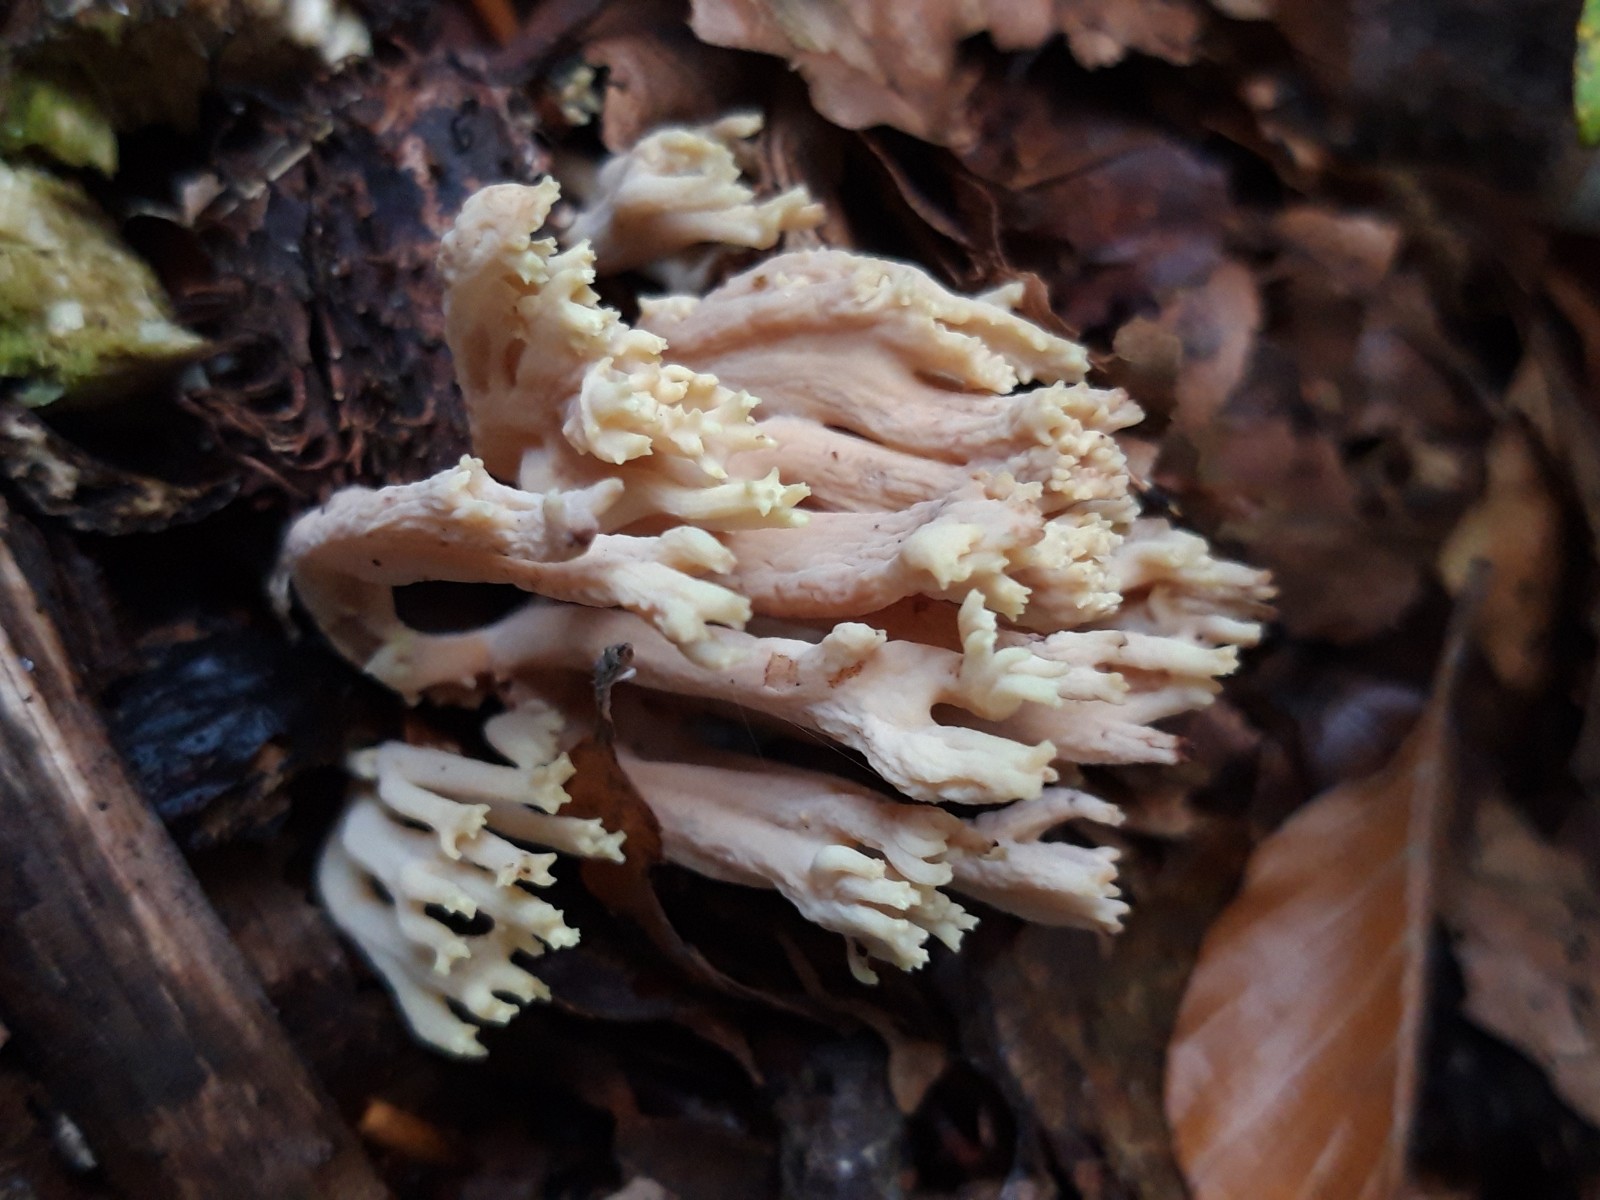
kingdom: Fungi
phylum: Basidiomycota
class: Agaricomycetes
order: Gomphales
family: Gomphaceae
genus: Ramaria
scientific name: Ramaria stricta
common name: rank koralsvamp
